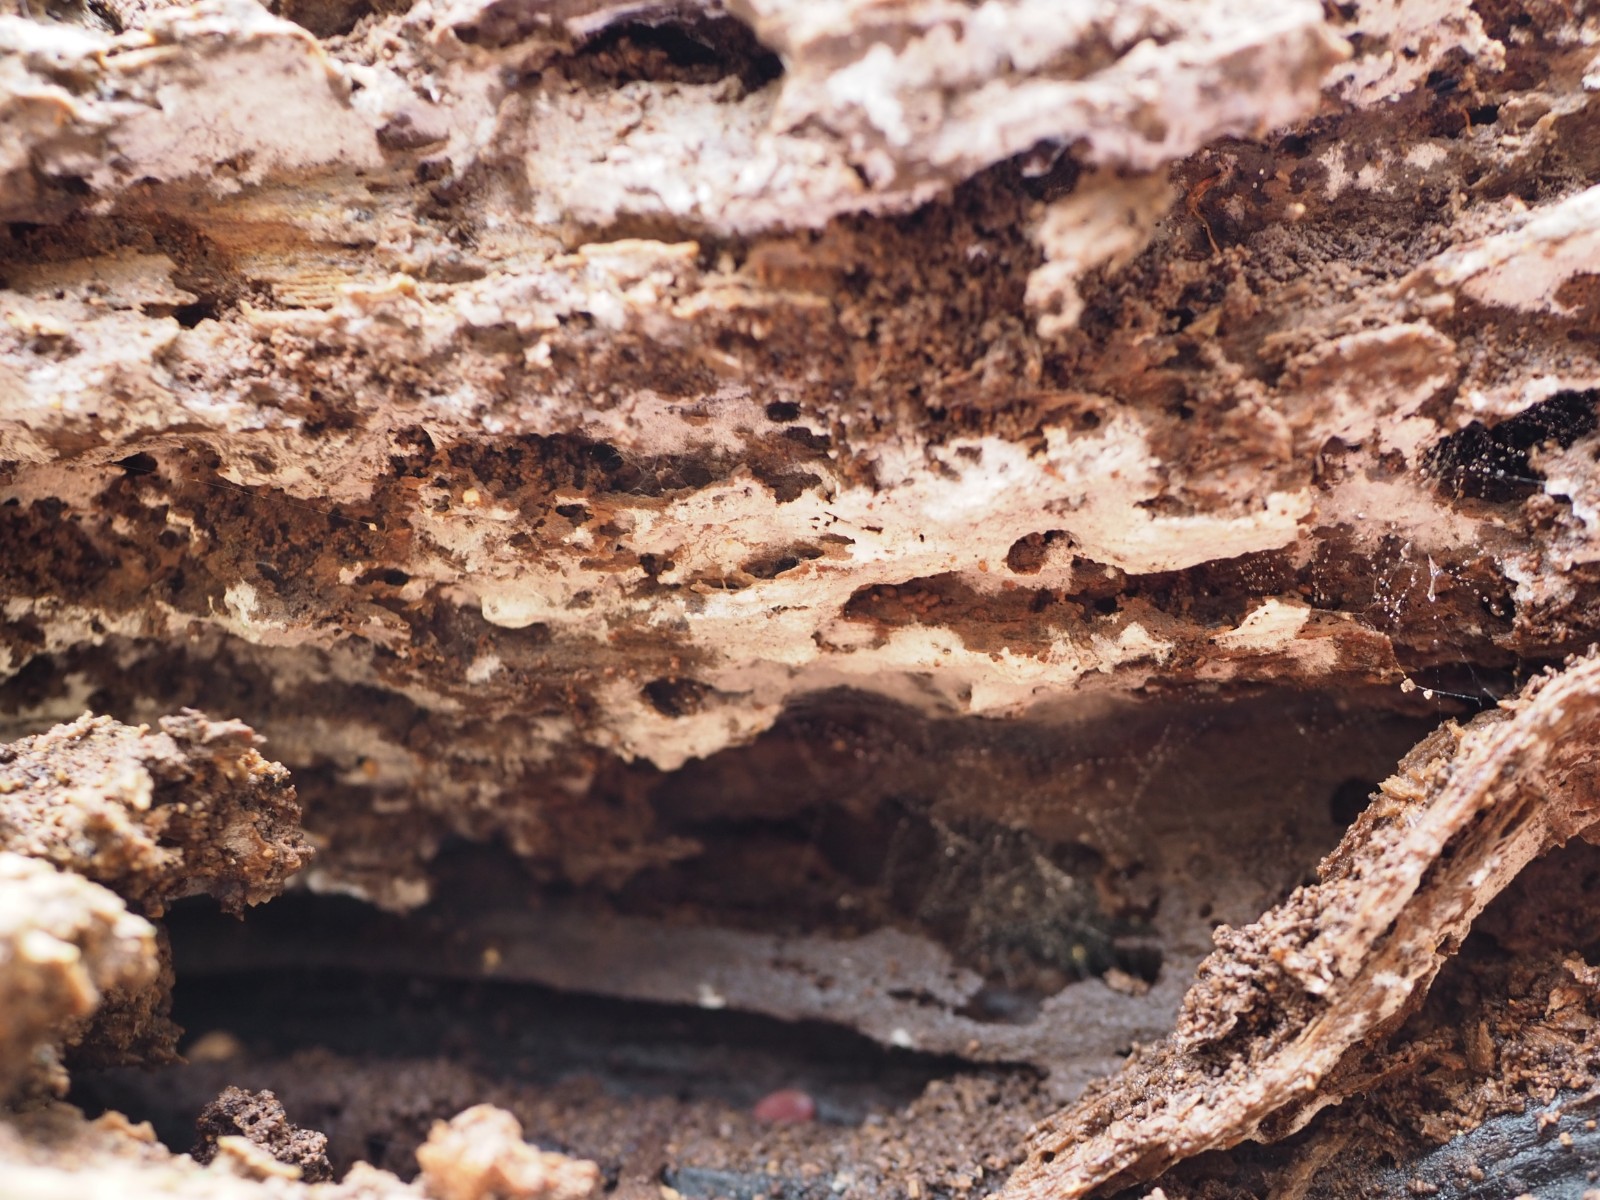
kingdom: Fungi
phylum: Basidiomycota
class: Agaricomycetes
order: Cantharellales
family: Botryobasidiaceae
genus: Botryobasidium
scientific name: Botryobasidium subcoronatum
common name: almindelig spindhinde
